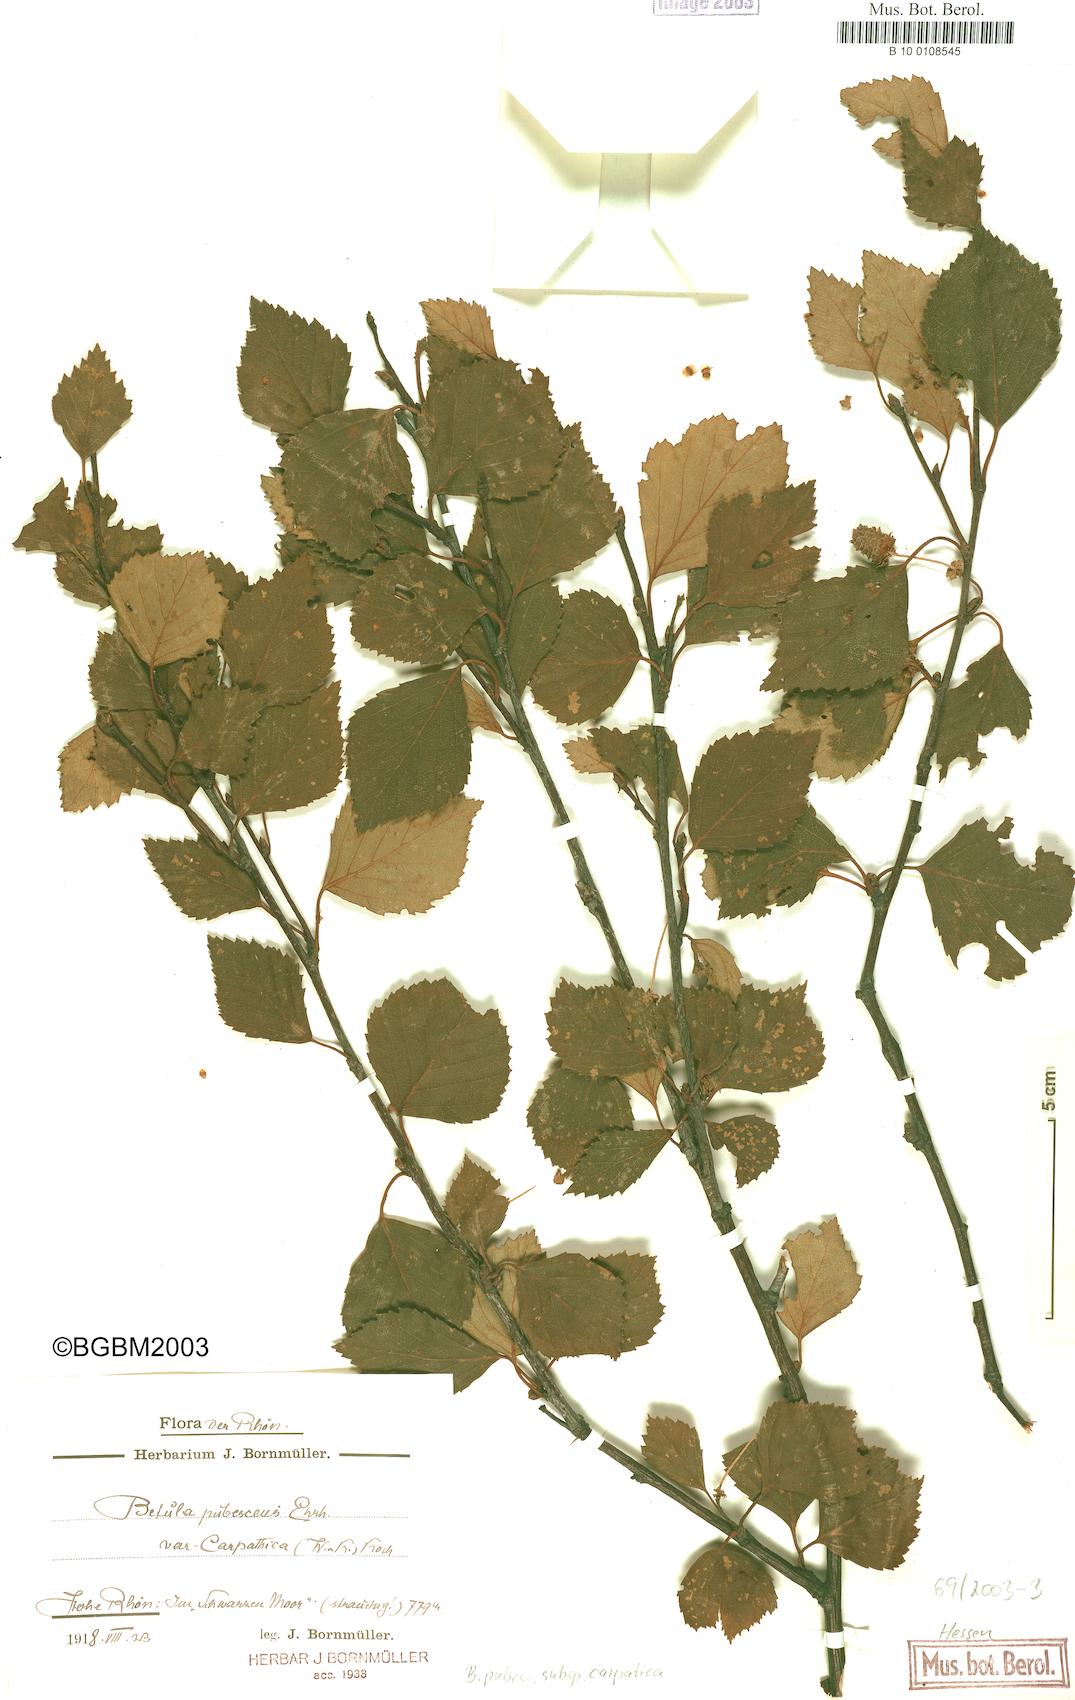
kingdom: Plantae
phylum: Tracheophyta
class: Magnoliopsida
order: Fagales
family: Betulaceae
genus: Betula
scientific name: Betula pubescens
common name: Downy birch
